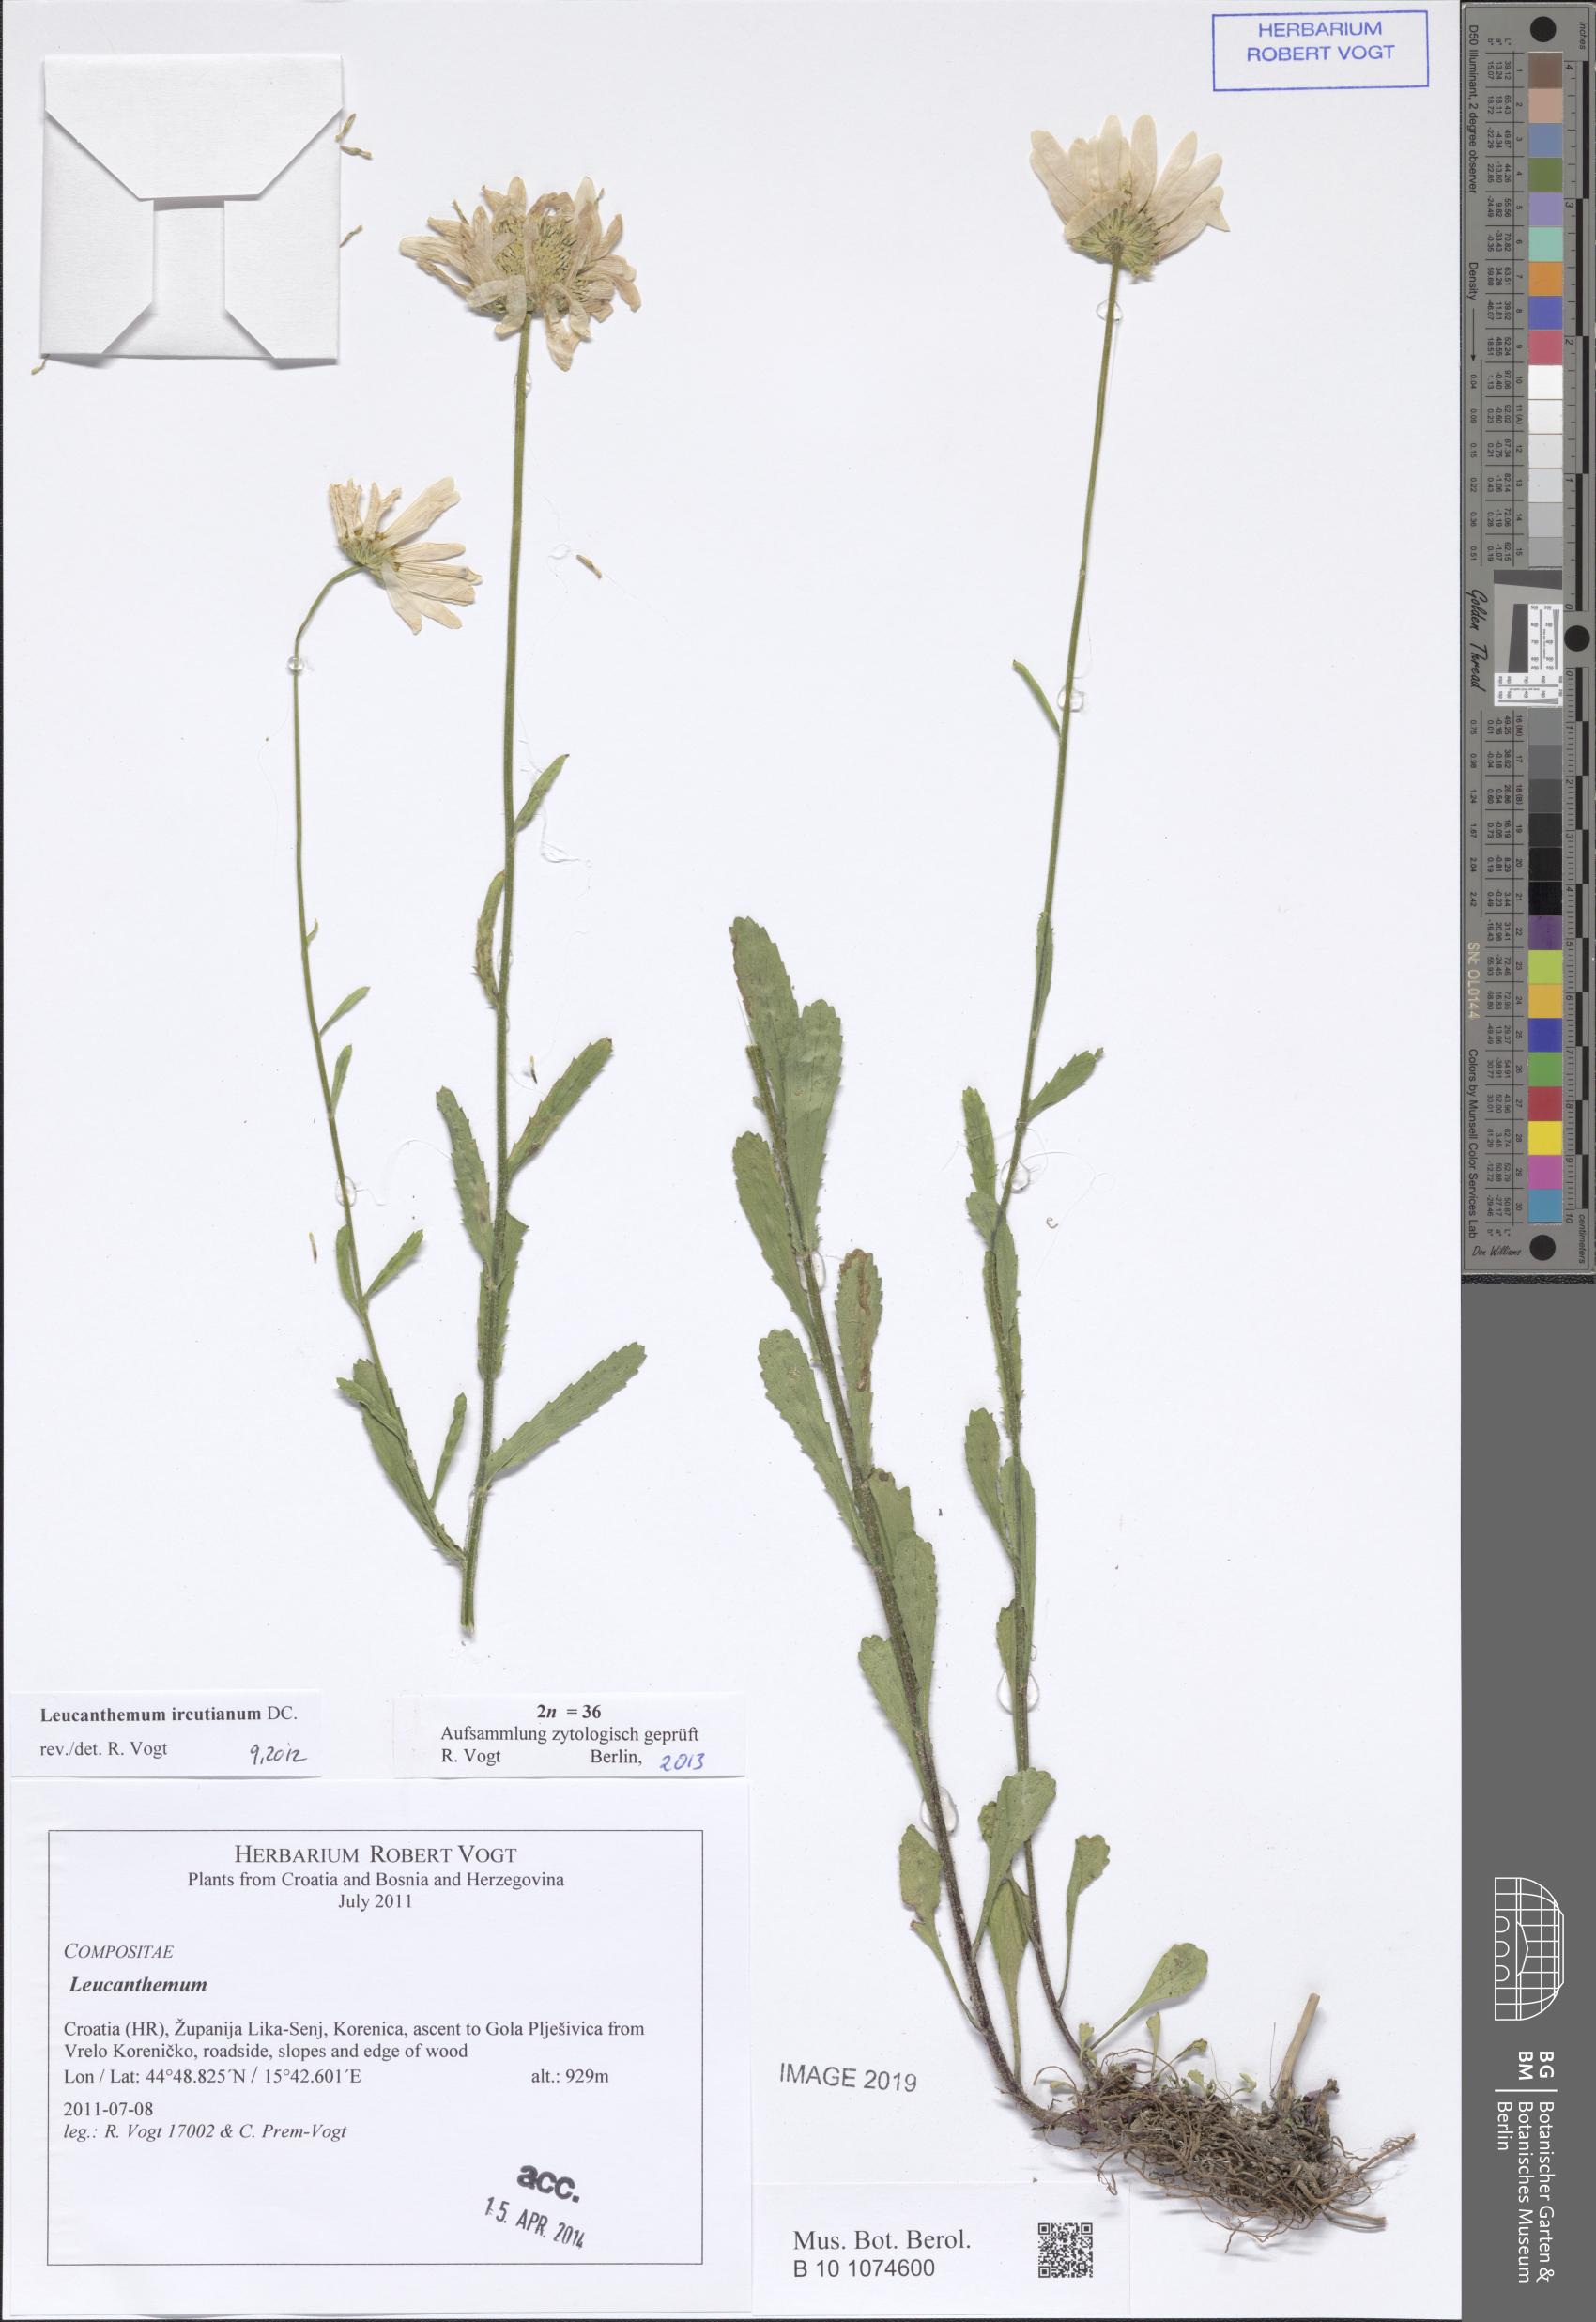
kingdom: Plantae
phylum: Tracheophyta
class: Magnoliopsida
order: Asterales
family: Asteraceae
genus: Leucanthemum
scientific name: Leucanthemum ircutianum
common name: Daisy
